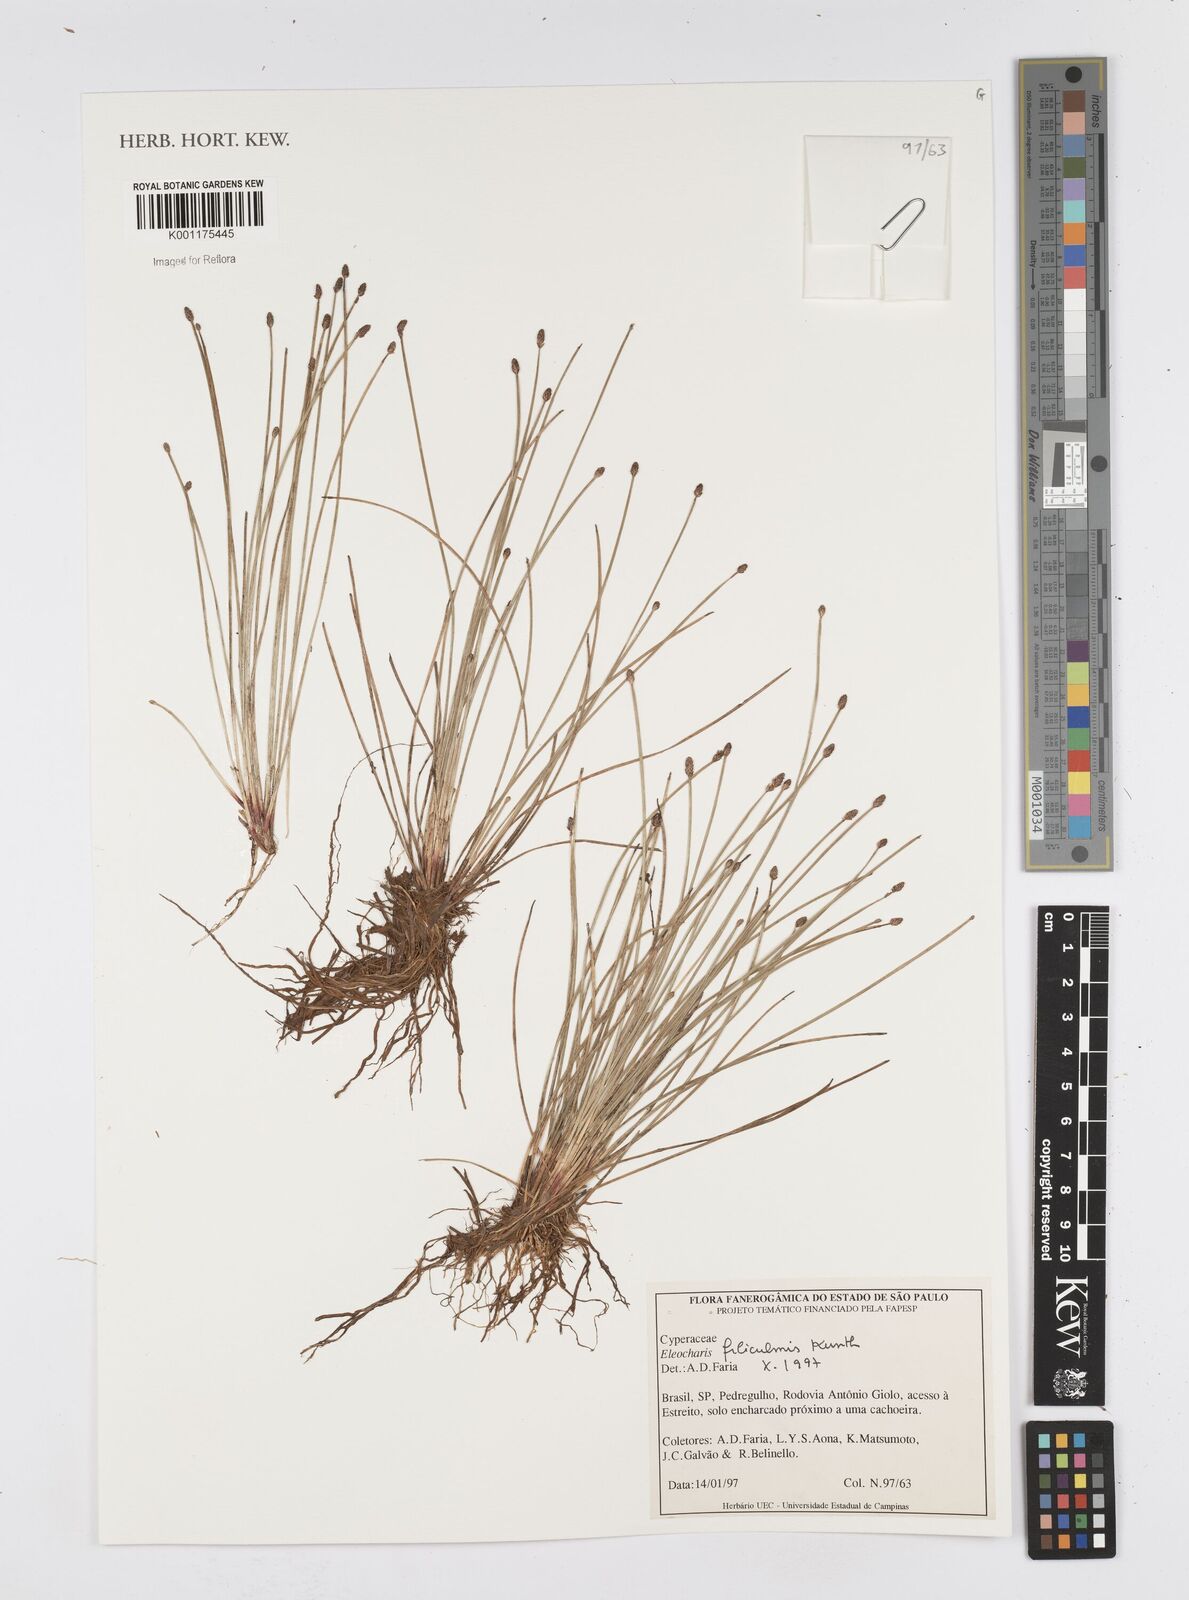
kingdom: Plantae
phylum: Tracheophyta
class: Liliopsida
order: Poales
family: Cyperaceae
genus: Eleocharis
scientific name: Eleocharis filiculmis
